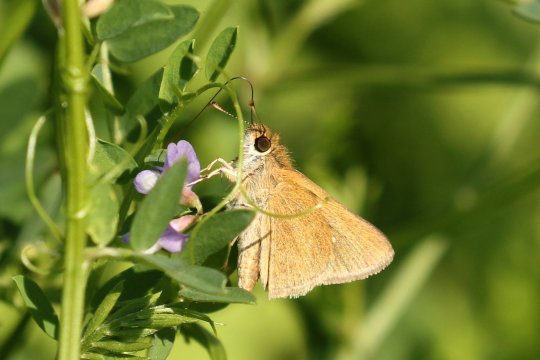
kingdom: Animalia
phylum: Arthropoda
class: Insecta
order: Lepidoptera
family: Hesperiidae
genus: Nastra
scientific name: Nastra julia
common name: Julia's Skipper
